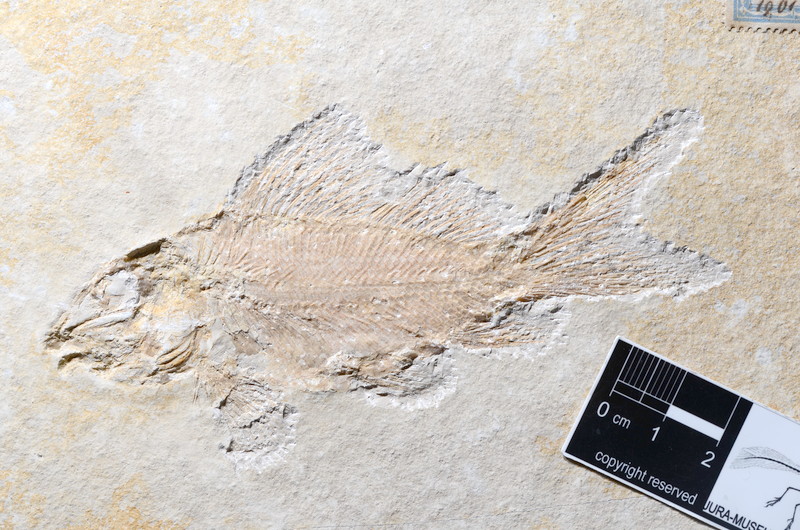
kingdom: Animalia
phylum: Chordata
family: Macrosemiidae
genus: Propterus
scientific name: Propterus elongatus
